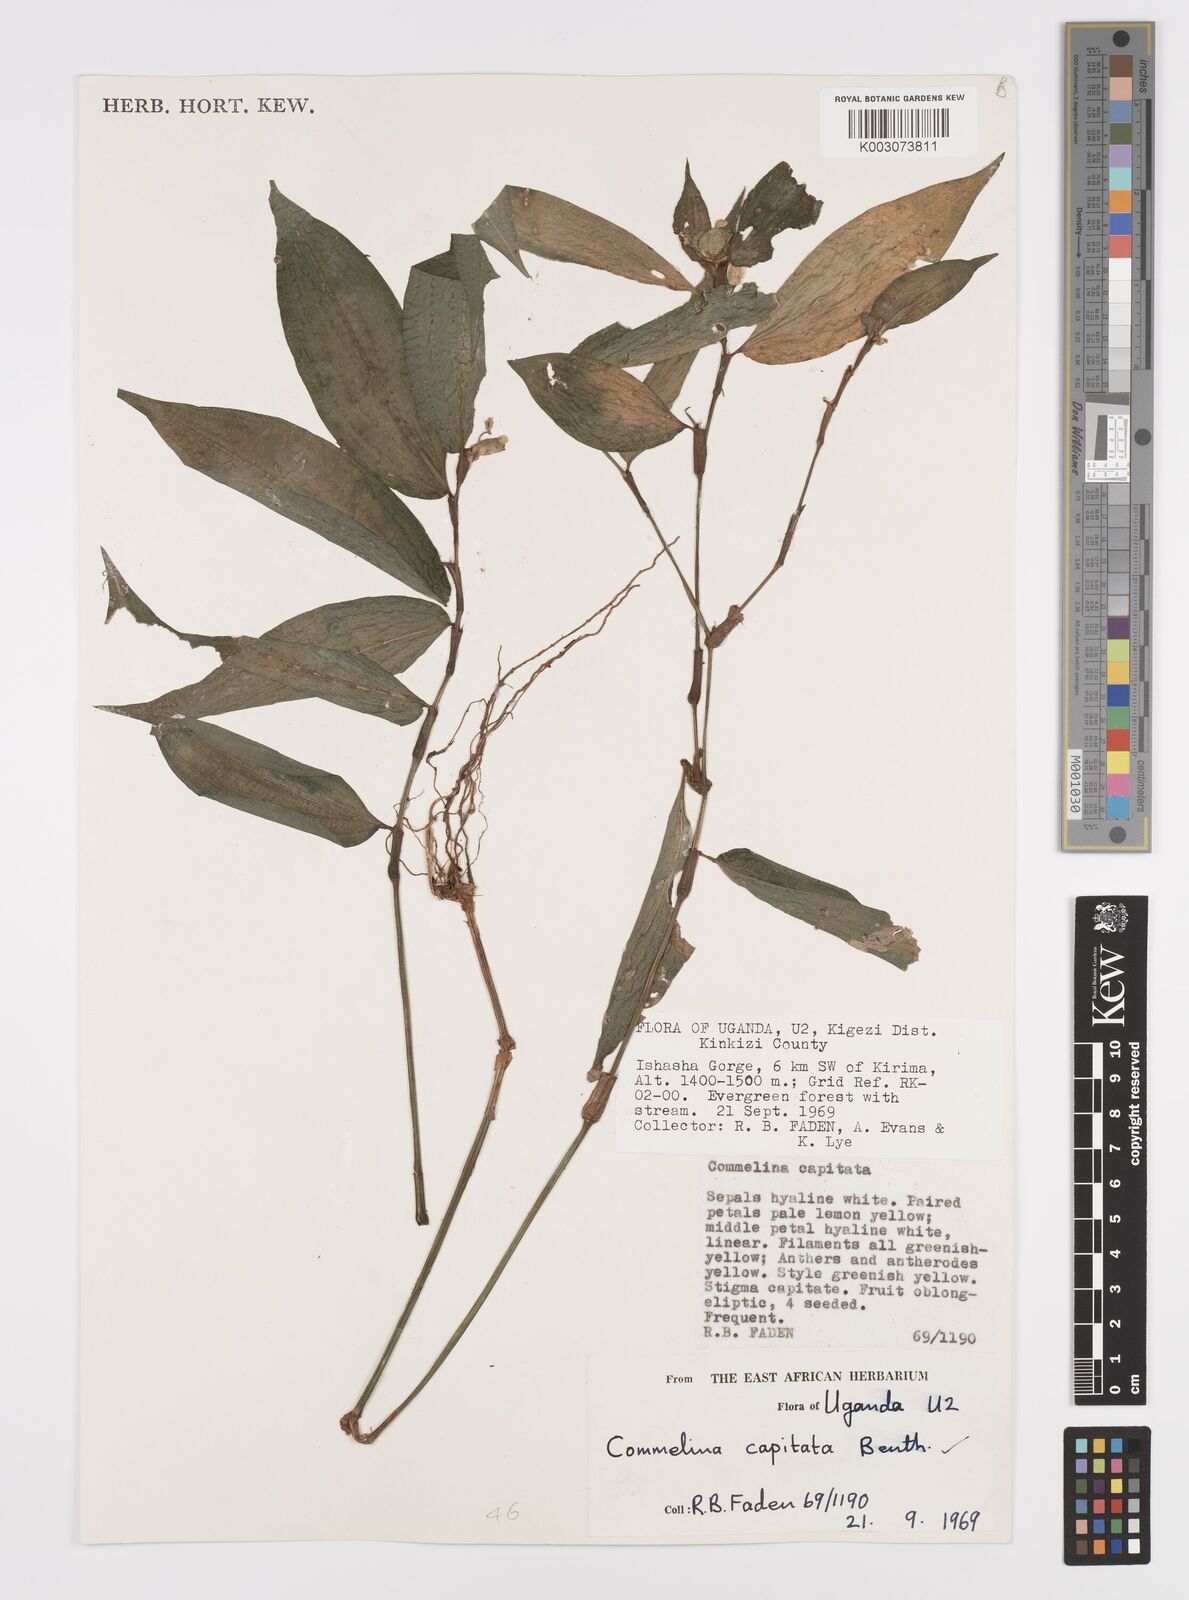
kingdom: Plantae
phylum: Tracheophyta
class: Liliopsida
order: Commelinales
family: Commelinaceae
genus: Commelina
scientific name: Commelina capitata
